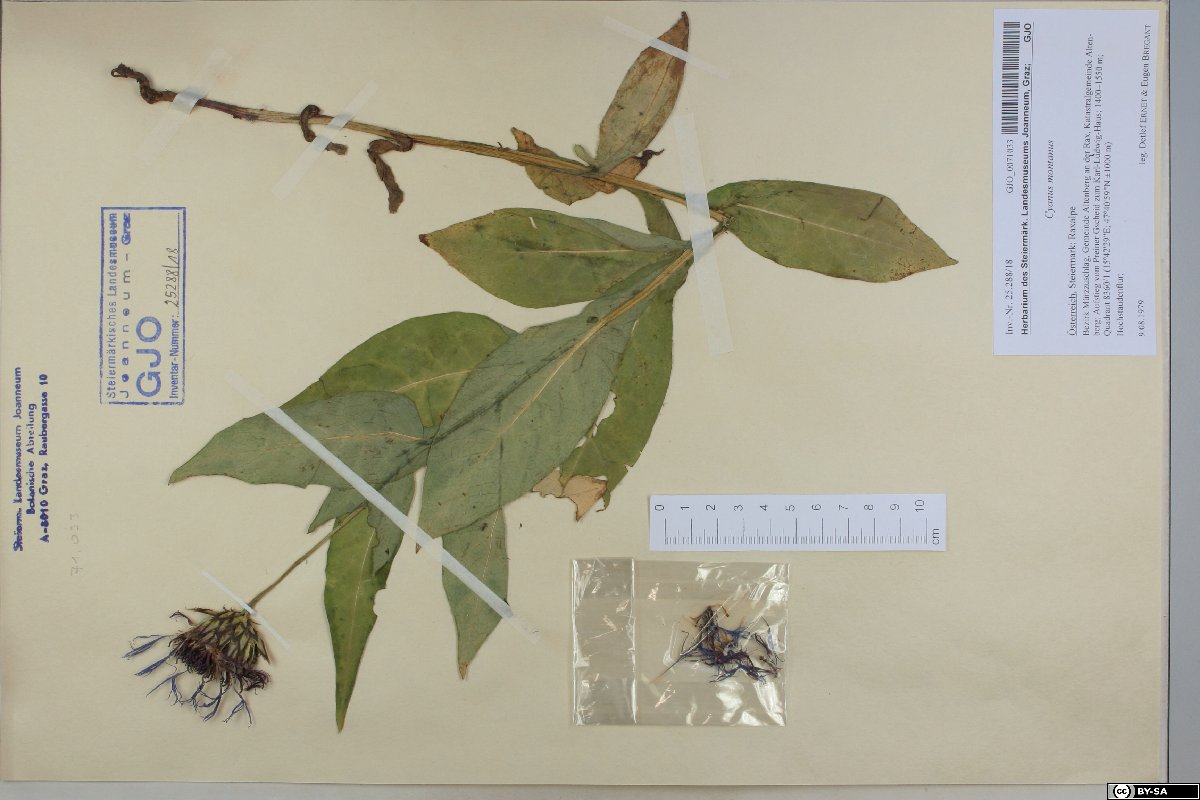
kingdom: Plantae
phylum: Tracheophyta
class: Magnoliopsida
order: Asterales
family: Asteraceae
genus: Centaurea
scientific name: Centaurea montana
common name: Perennial cornflower
